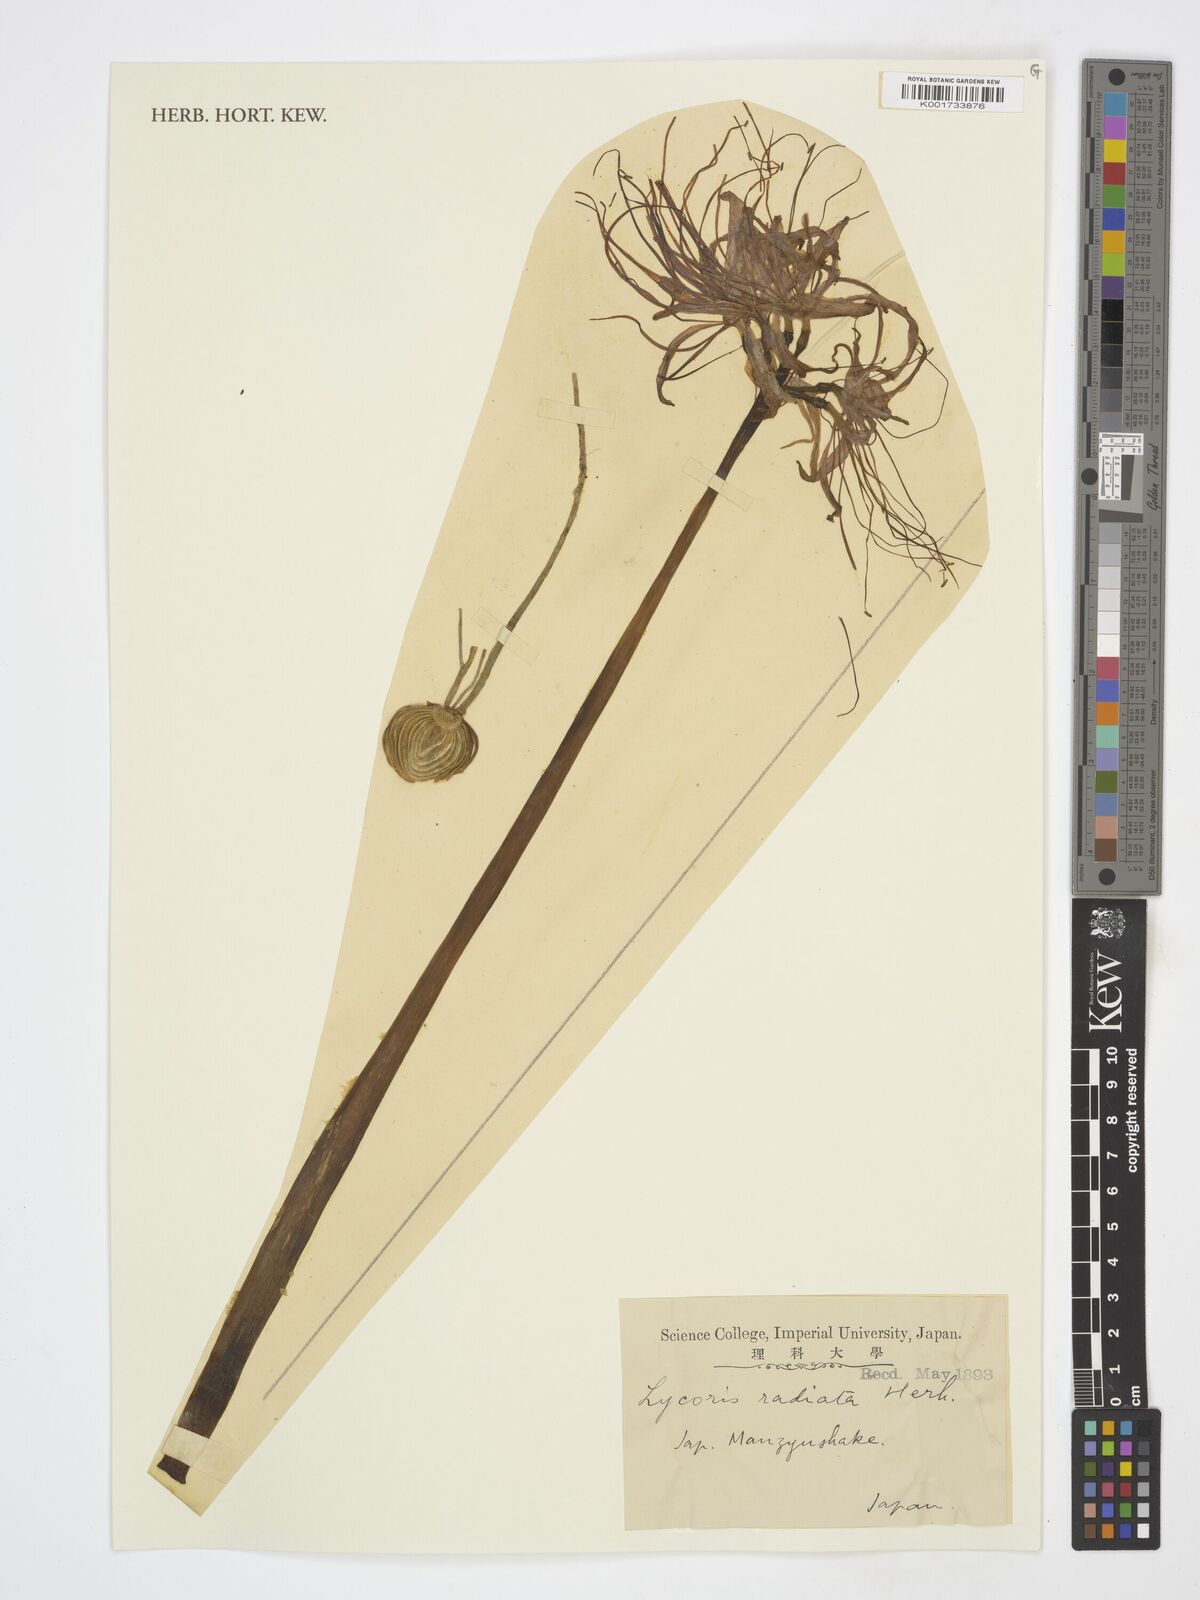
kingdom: Plantae
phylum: Tracheophyta
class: Liliopsida
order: Asparagales
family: Amaryllidaceae
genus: Lycoris
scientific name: Lycoris
